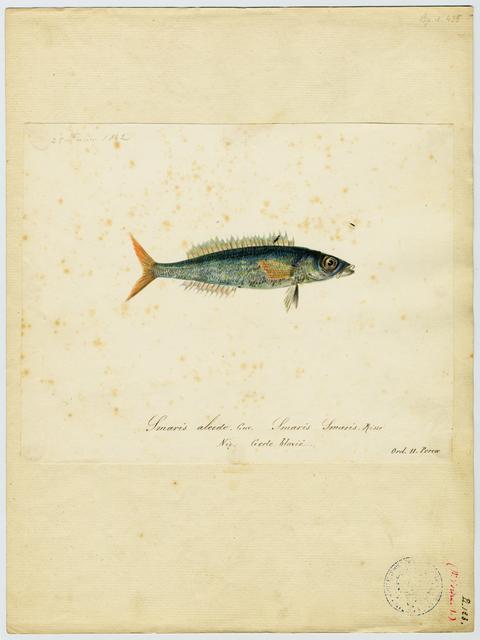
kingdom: Animalia
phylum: Chordata
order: Perciformes
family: Sparidae
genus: Spicara
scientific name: Spicara smaris
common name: Picarel
